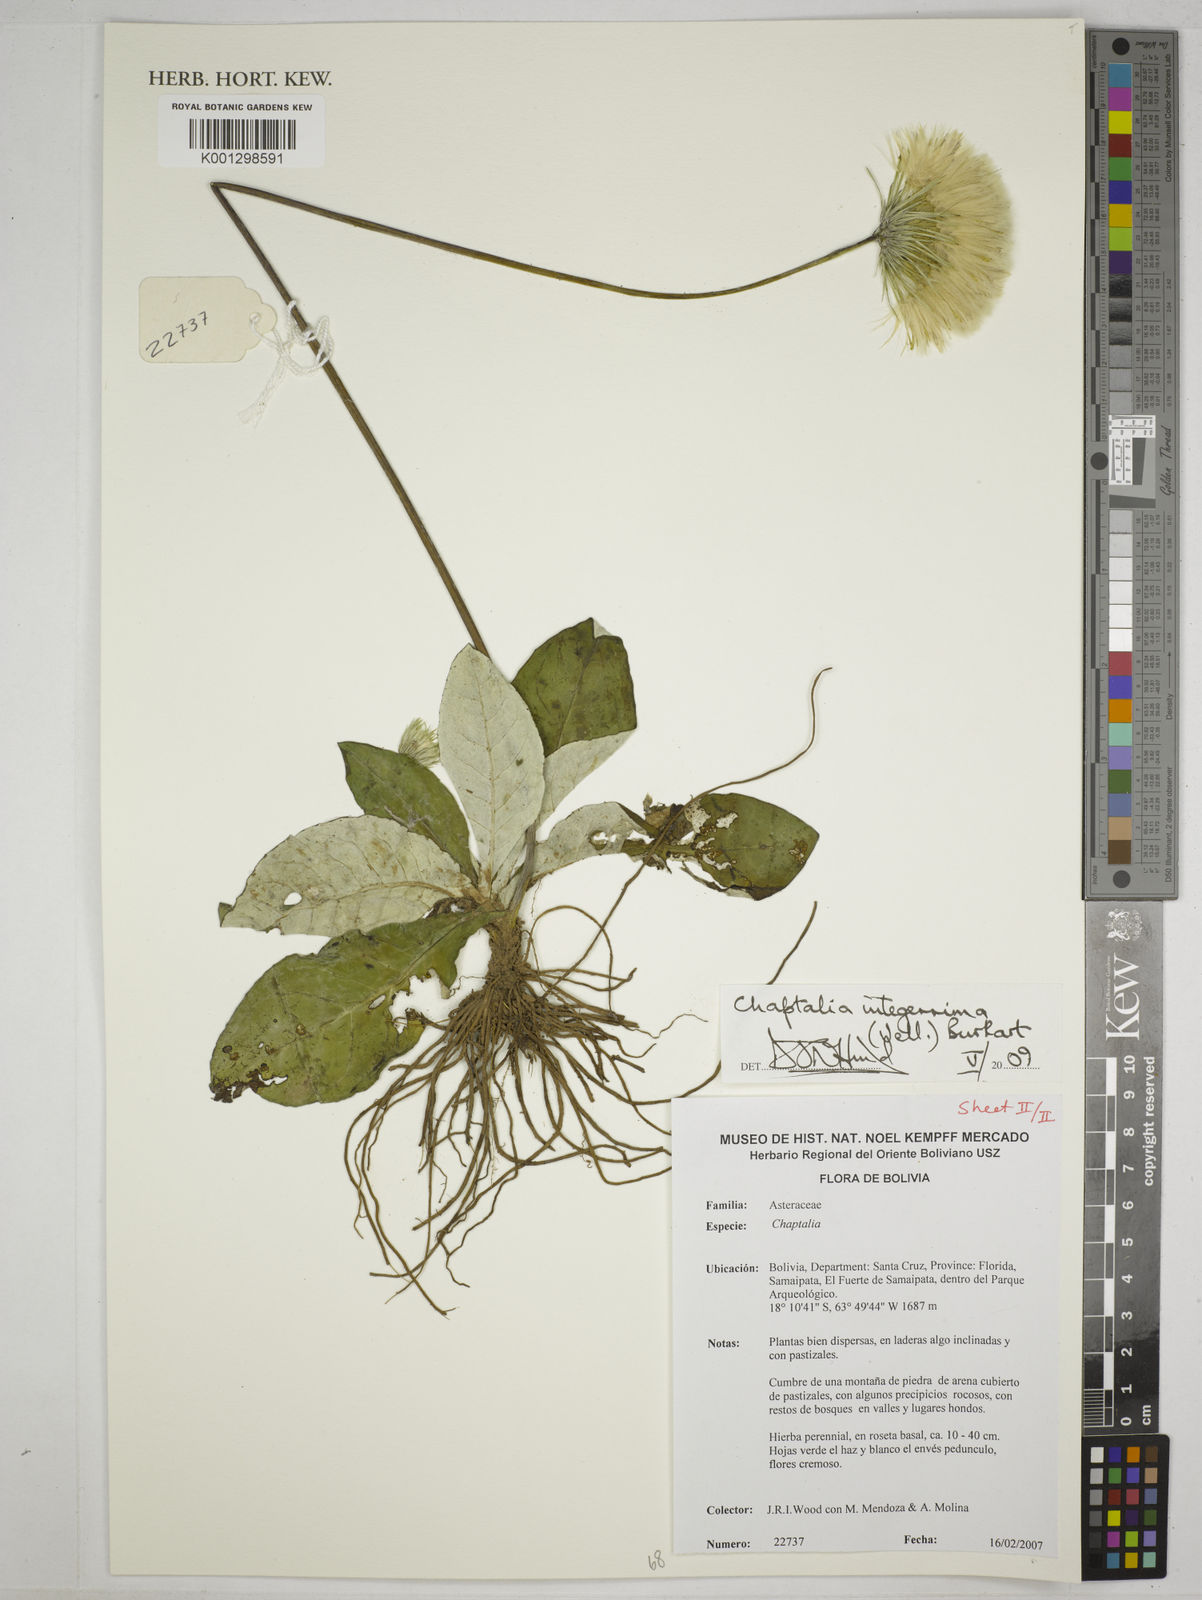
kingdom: Plantae
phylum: Tracheophyta
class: Magnoliopsida
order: Asterales
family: Asteraceae
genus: Chaptalia
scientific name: Chaptalia integerrima
